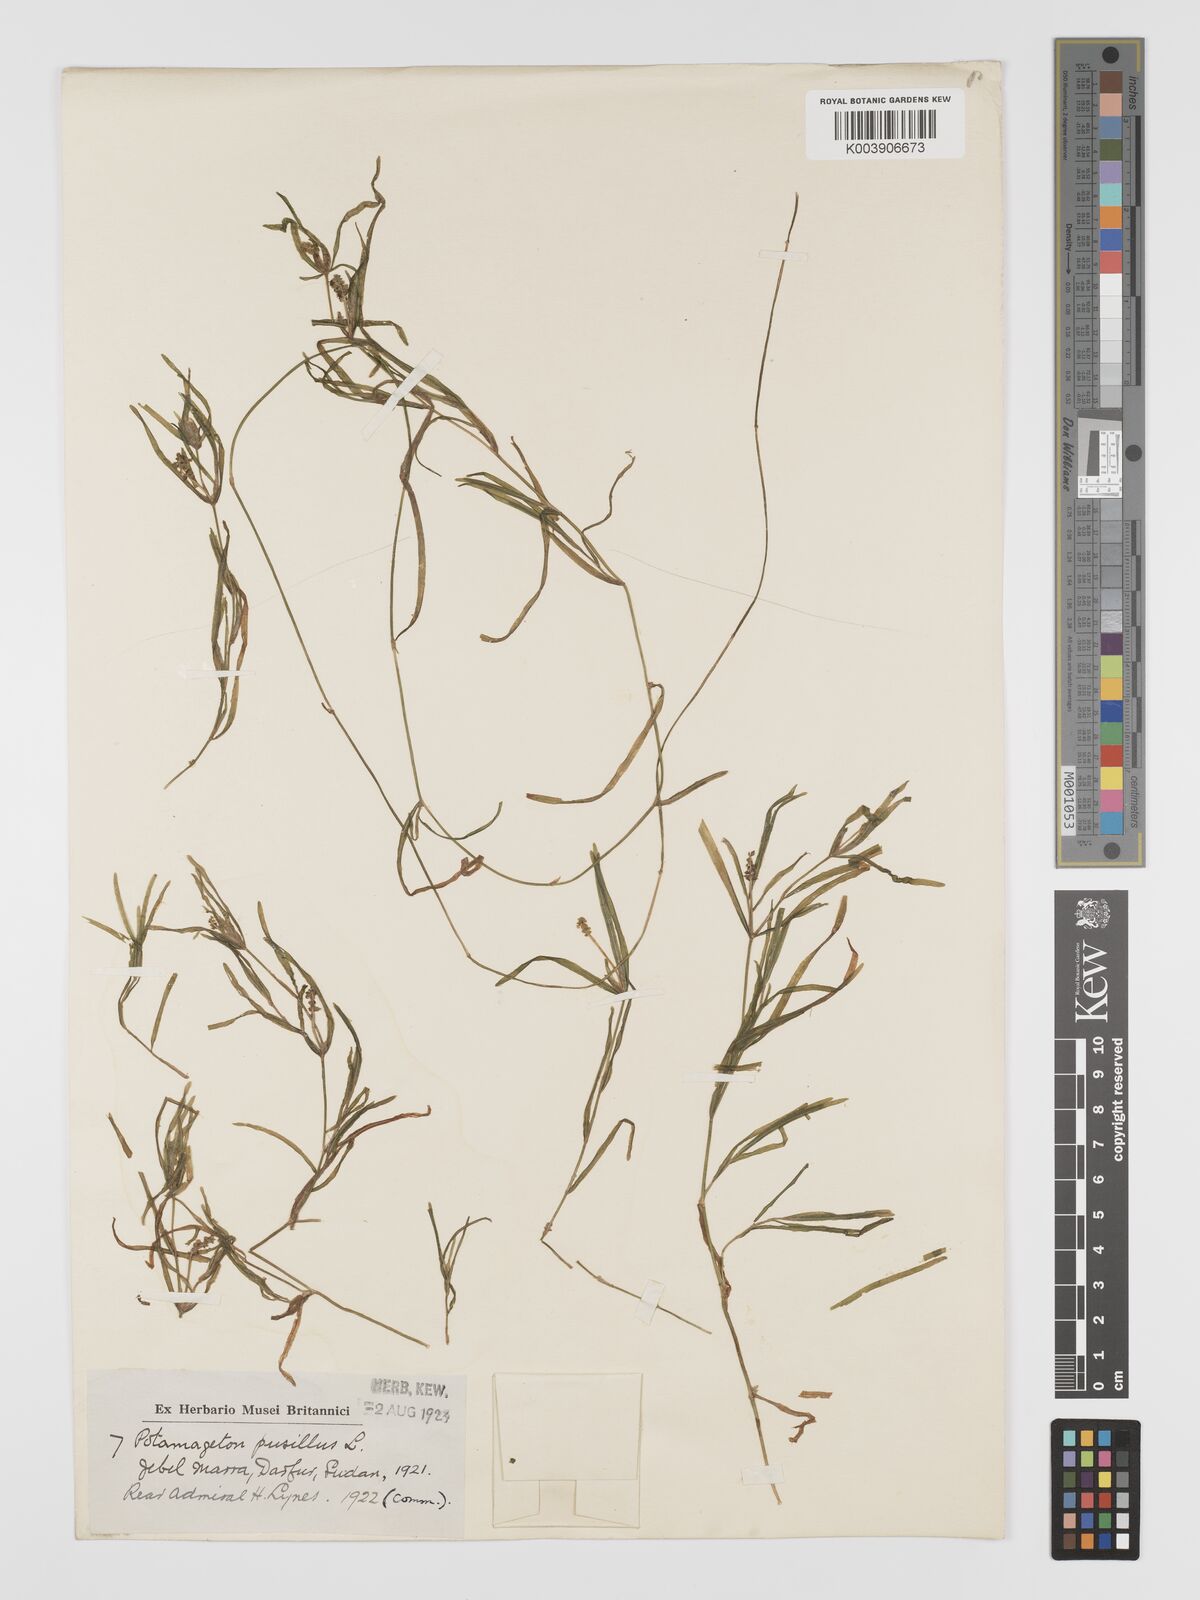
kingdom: Plantae
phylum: Tracheophyta
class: Liliopsida
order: Alismatales
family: Potamogetonaceae
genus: Potamogeton
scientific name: Potamogeton pusillus
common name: Lesser pondweed
